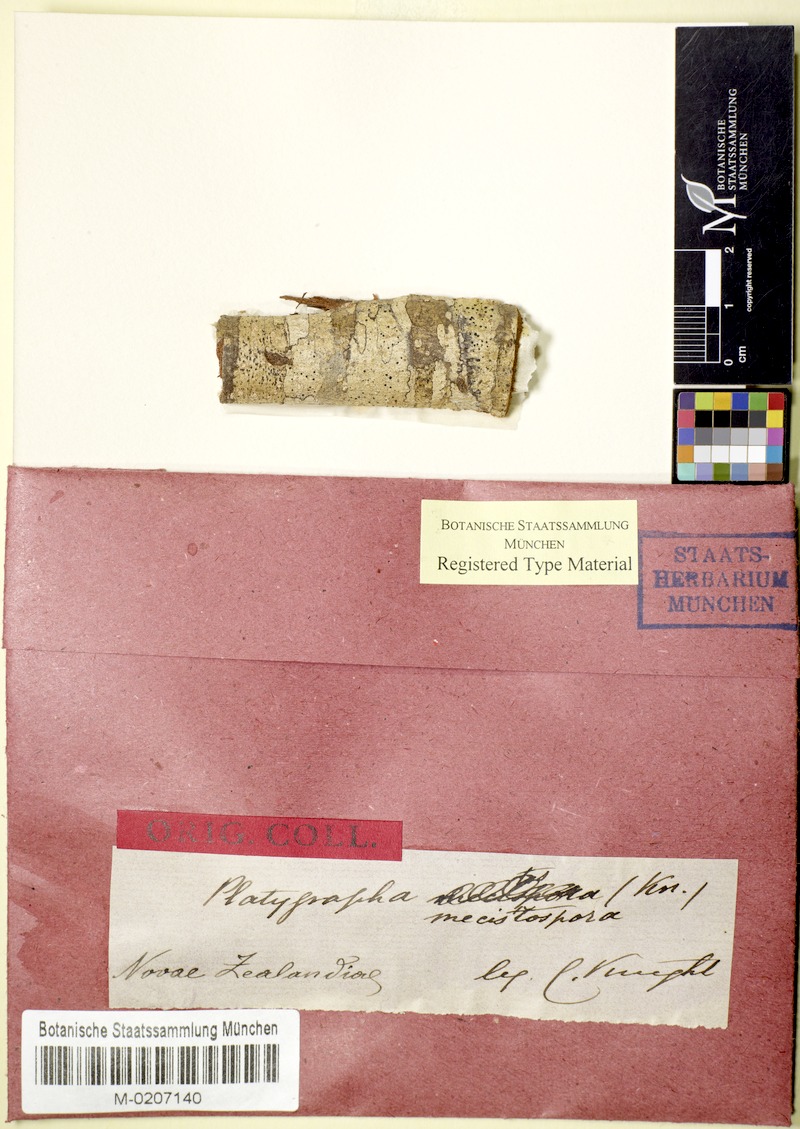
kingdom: Fungi
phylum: Ascomycota
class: Arthoniomycetes
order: Arthoniales
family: Roccellaceae
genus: Bactrospora
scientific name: Bactrospora pleistophragmoides
